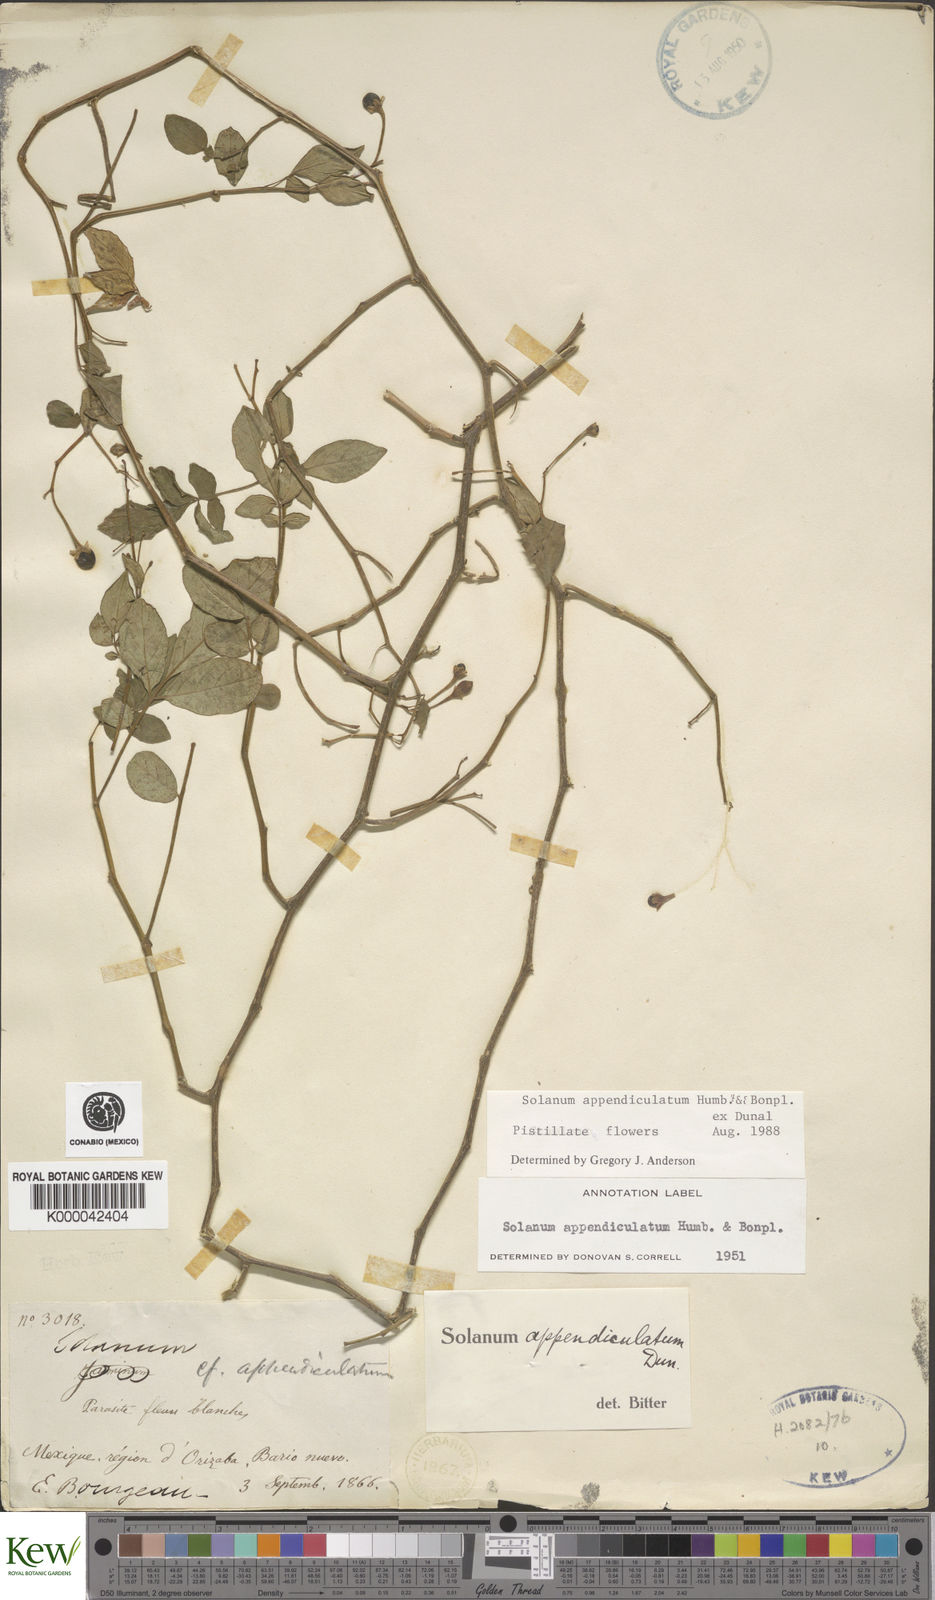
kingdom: Plantae
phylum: Tracheophyta
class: Magnoliopsida
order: Solanales
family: Solanaceae
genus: Solanum
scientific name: Solanum appendiculatum
